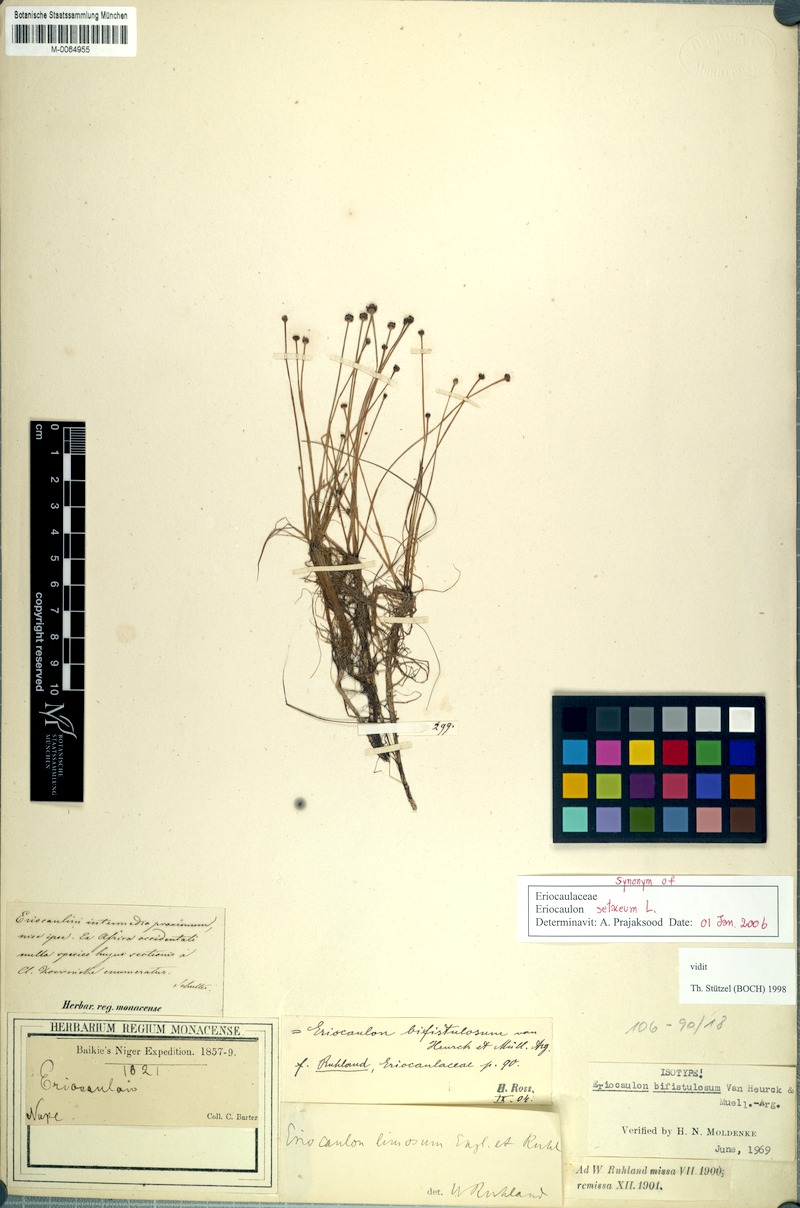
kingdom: Plantae
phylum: Tracheophyta
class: Liliopsida
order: Poales
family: Eriocaulaceae
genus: Eriocaulon
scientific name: Eriocaulon setaceum
